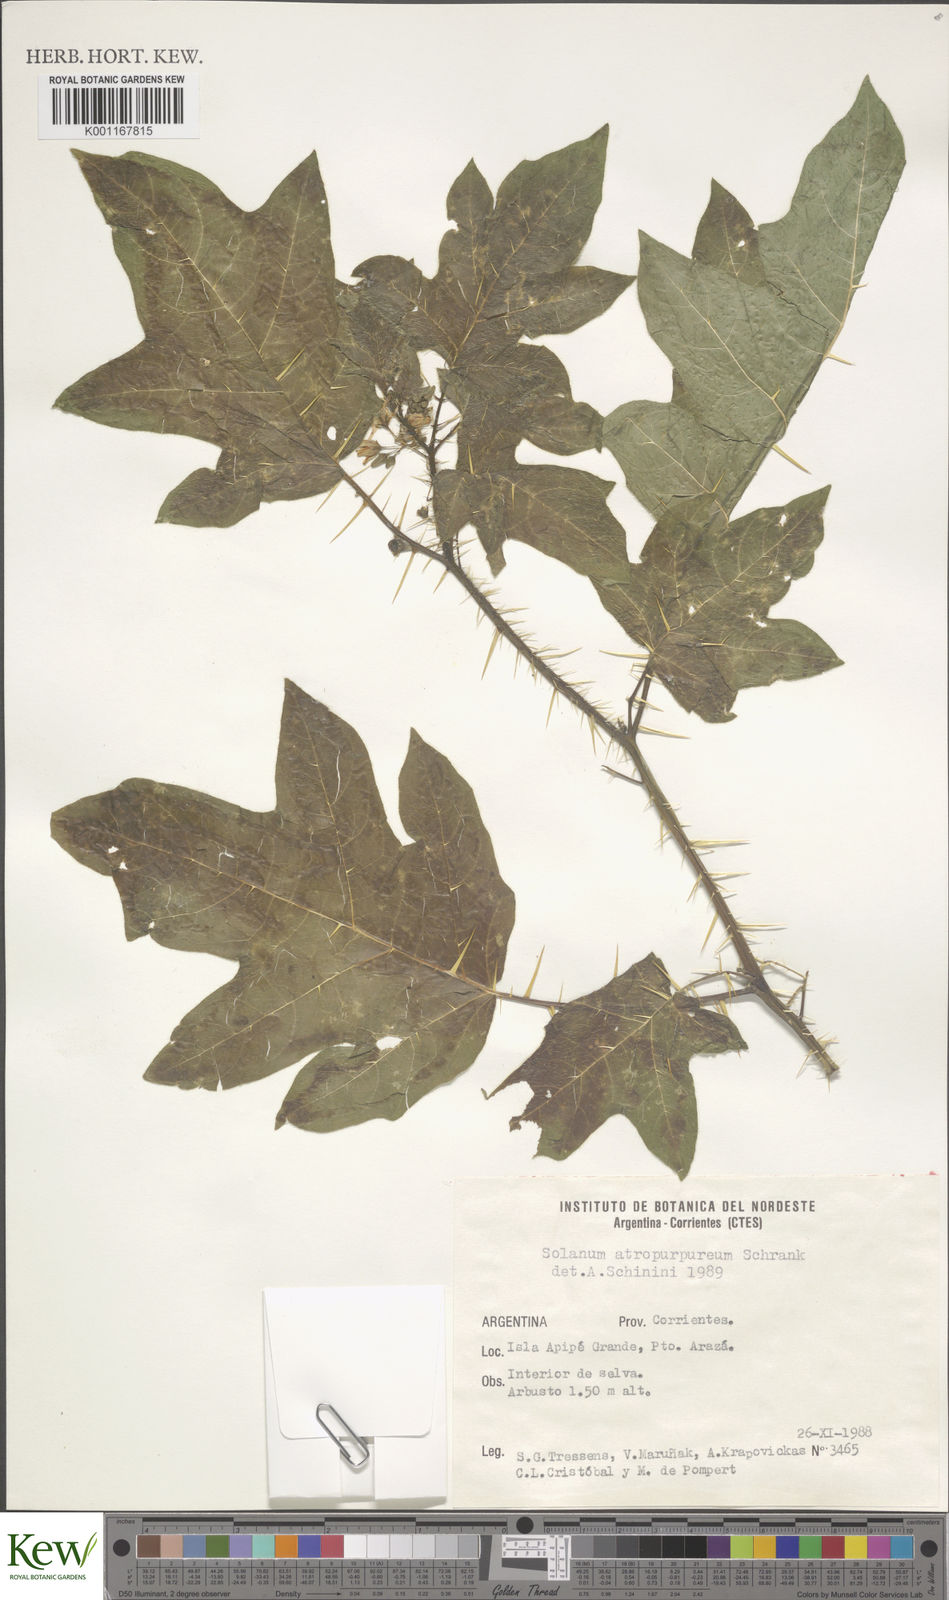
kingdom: Plantae
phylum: Tracheophyta
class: Magnoliopsida
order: Solanales
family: Solanaceae
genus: Solanum
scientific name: Solanum atropurpureum
